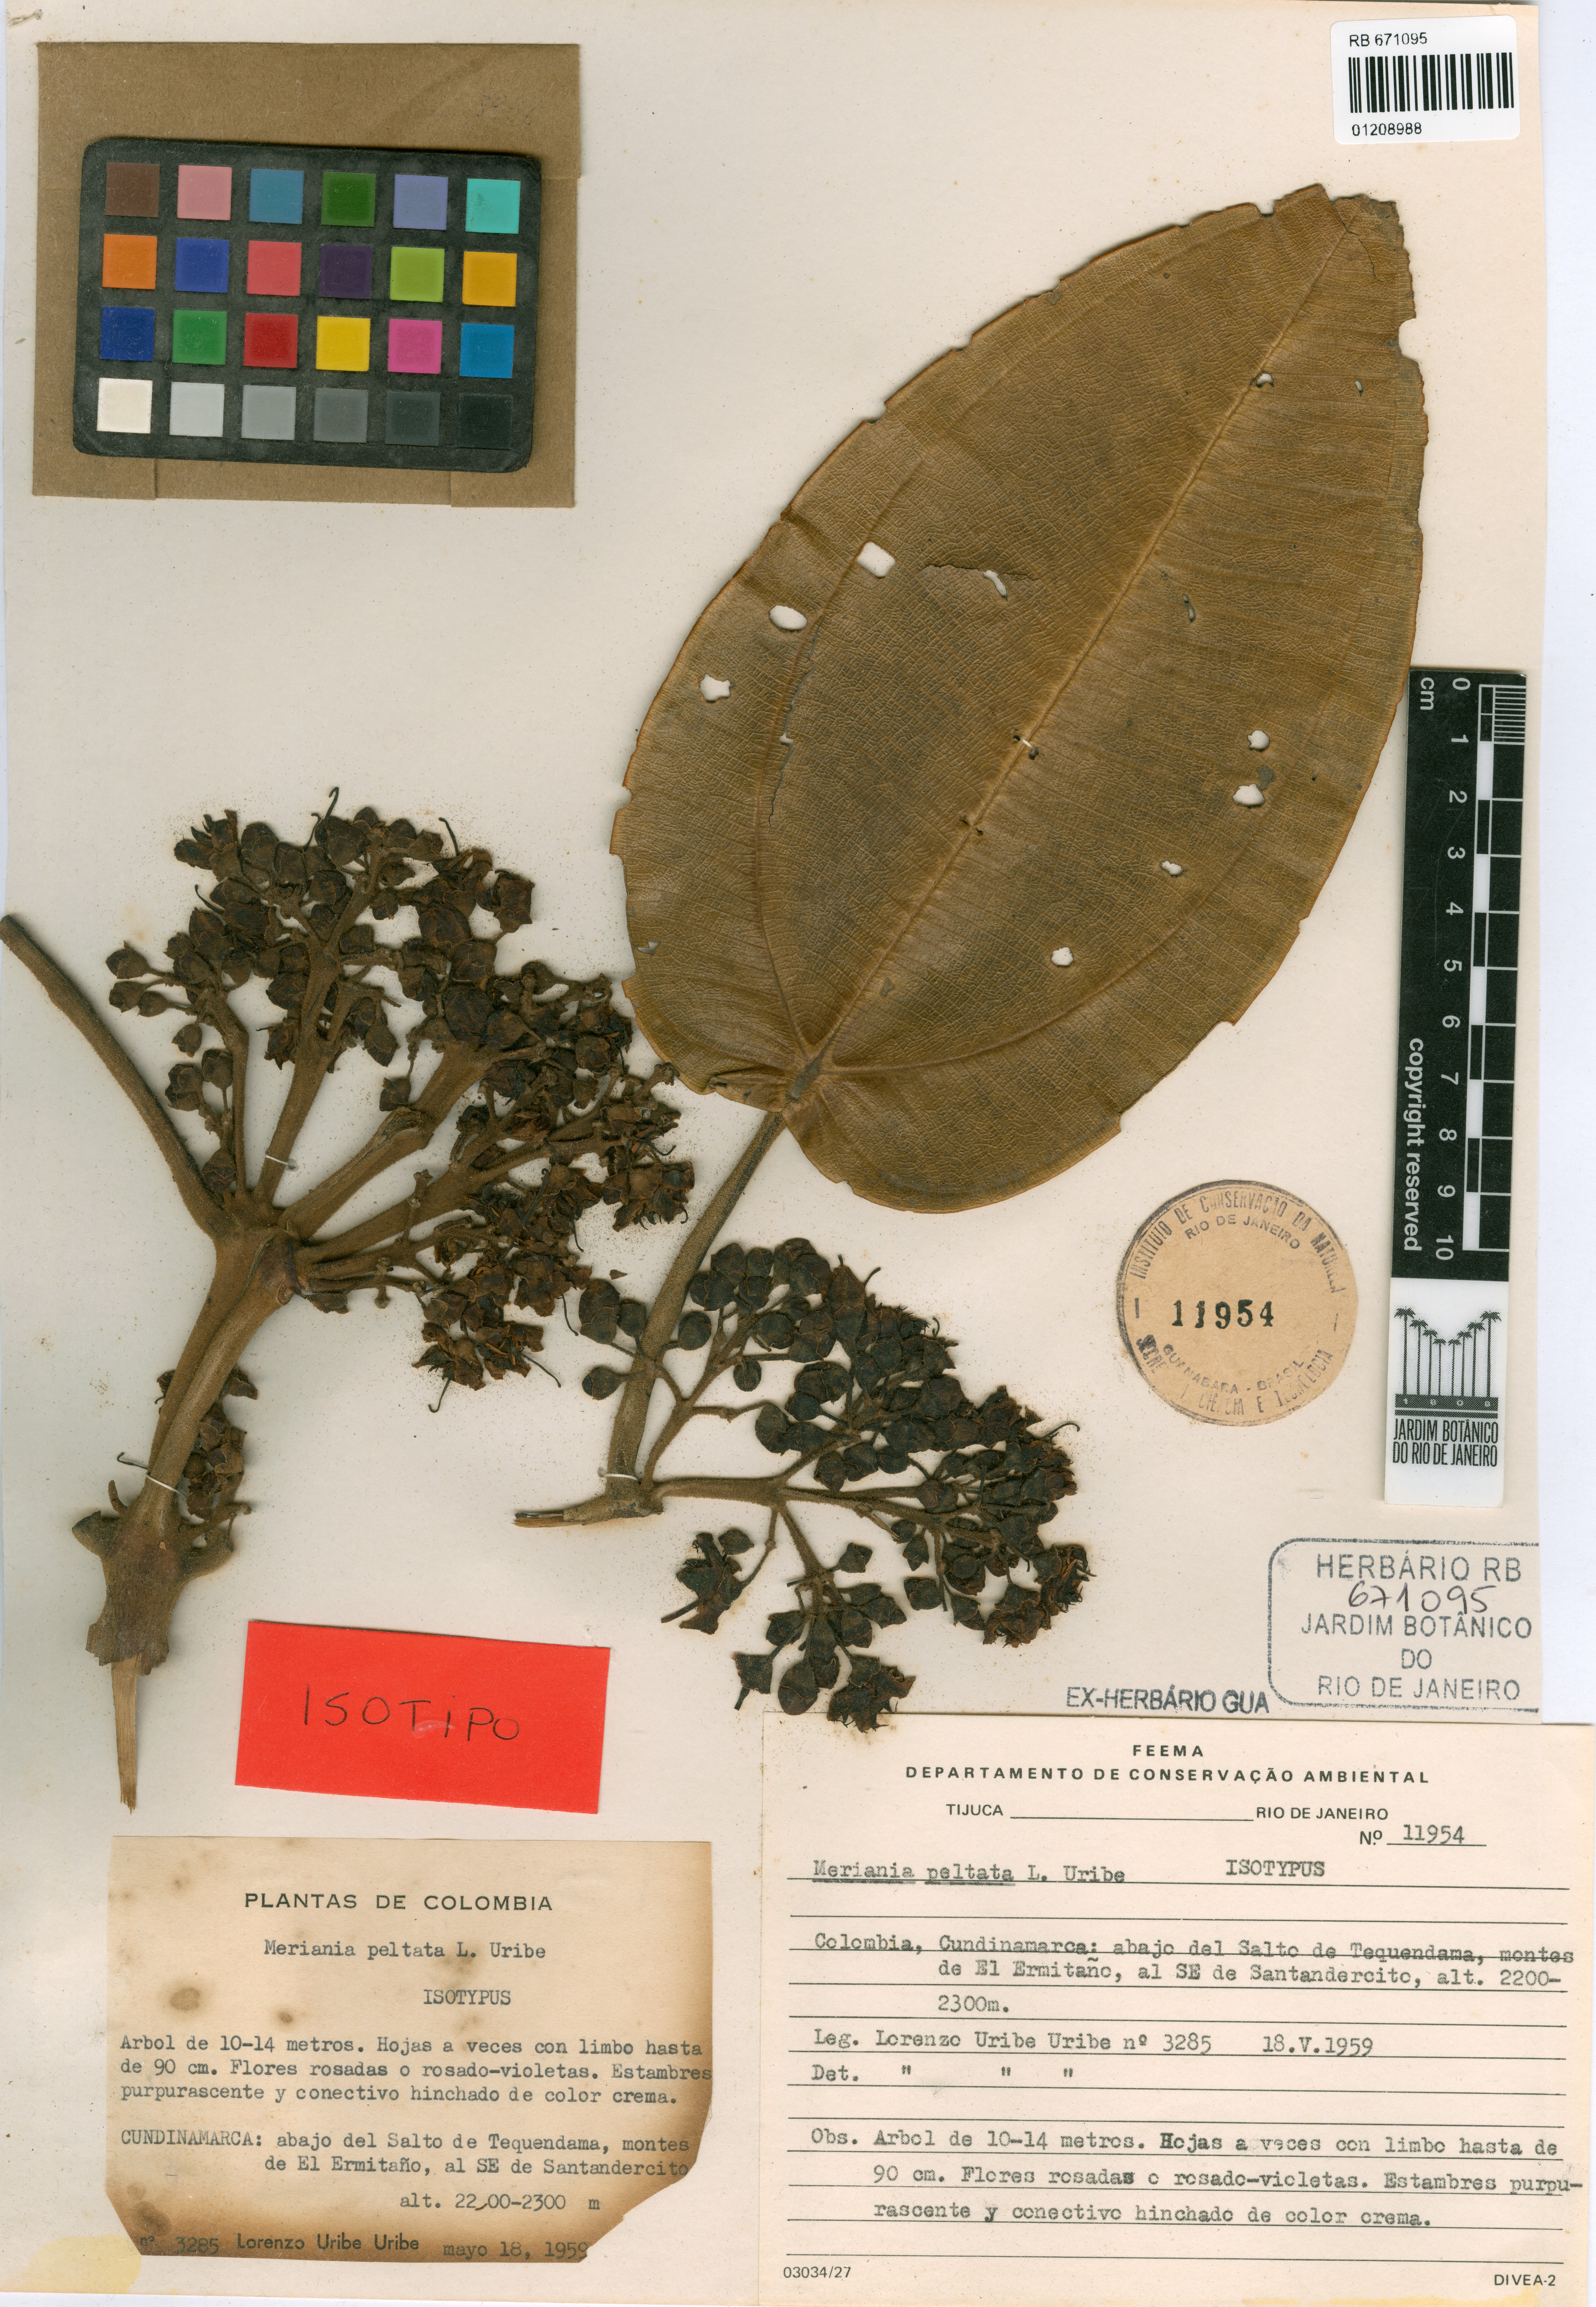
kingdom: Plantae
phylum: Tracheophyta
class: Magnoliopsida
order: Myrtales
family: Melastomataceae
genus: Meriania
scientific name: Meriania macrophylla
